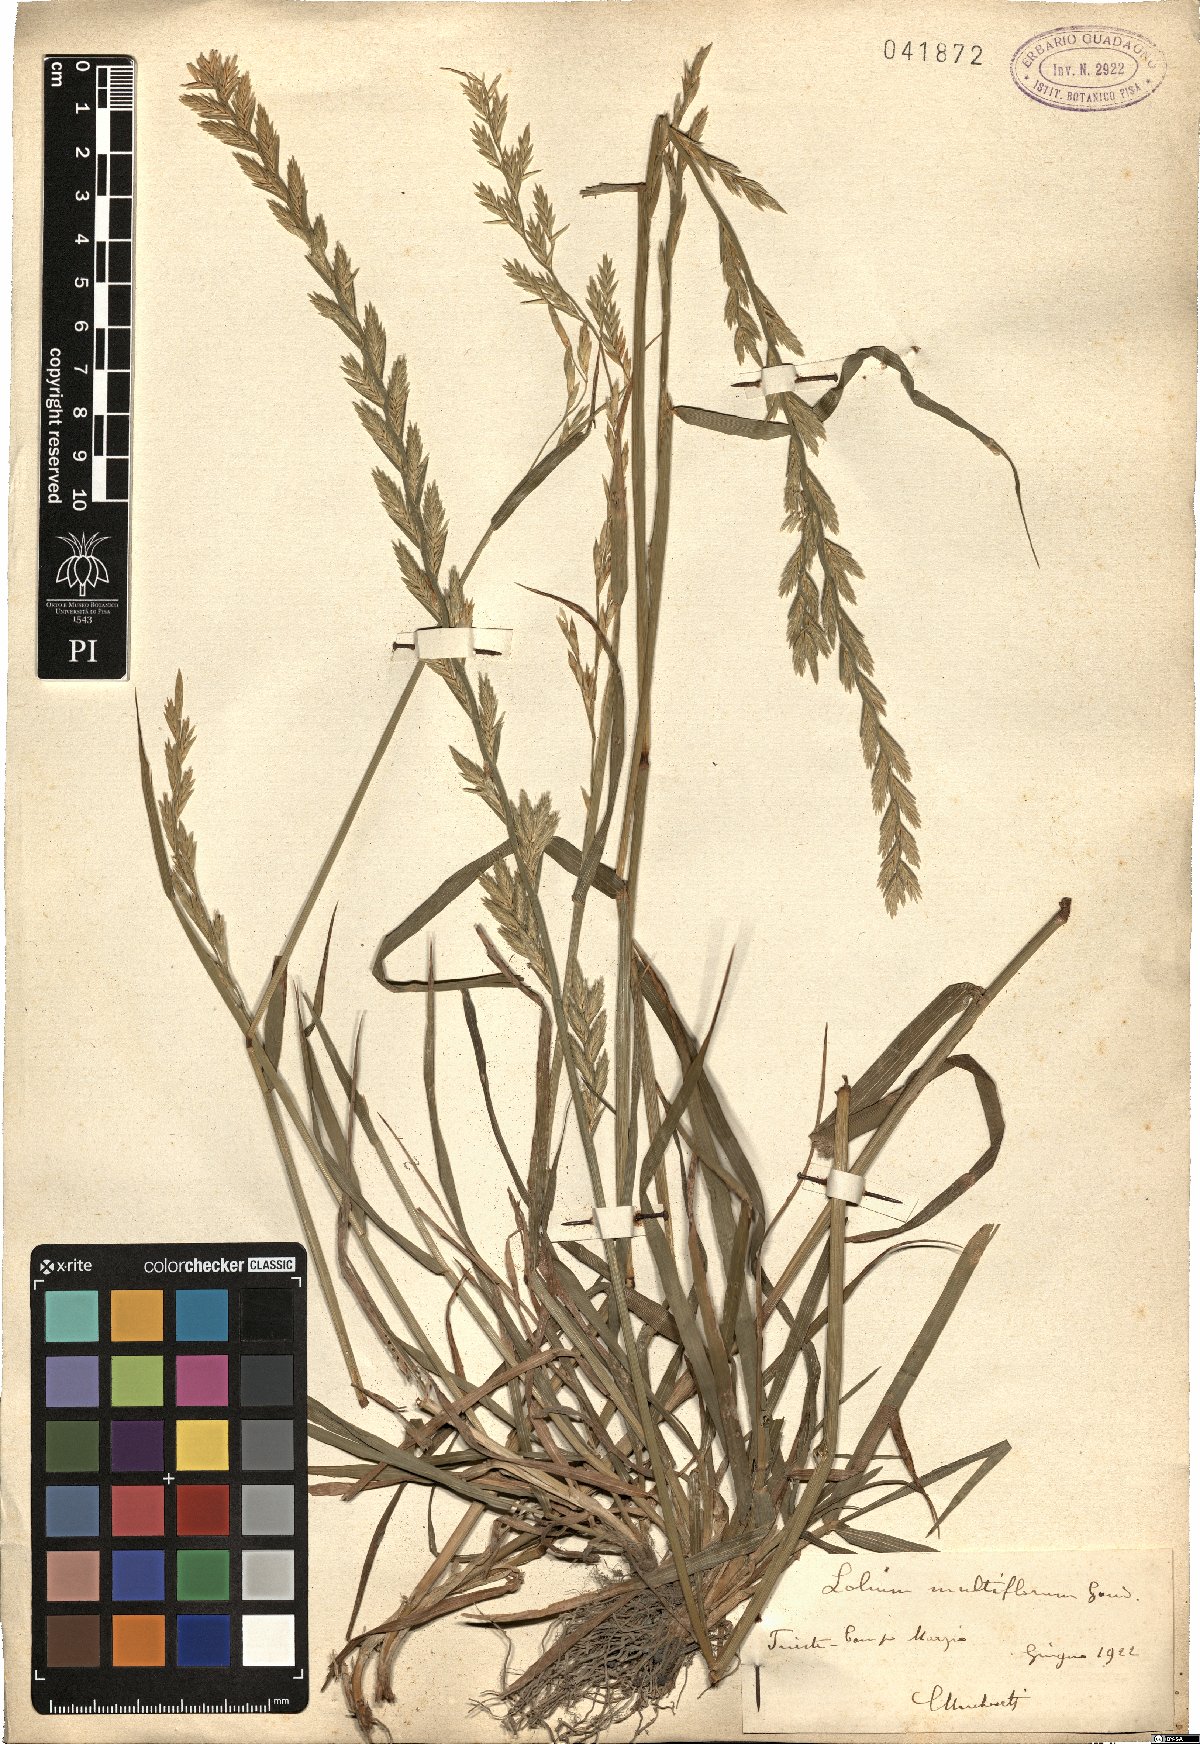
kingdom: Plantae
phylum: Tracheophyta
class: Liliopsida
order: Poales
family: Poaceae
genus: Lolium
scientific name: Lolium multiflorum
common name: Annual ryegrass
